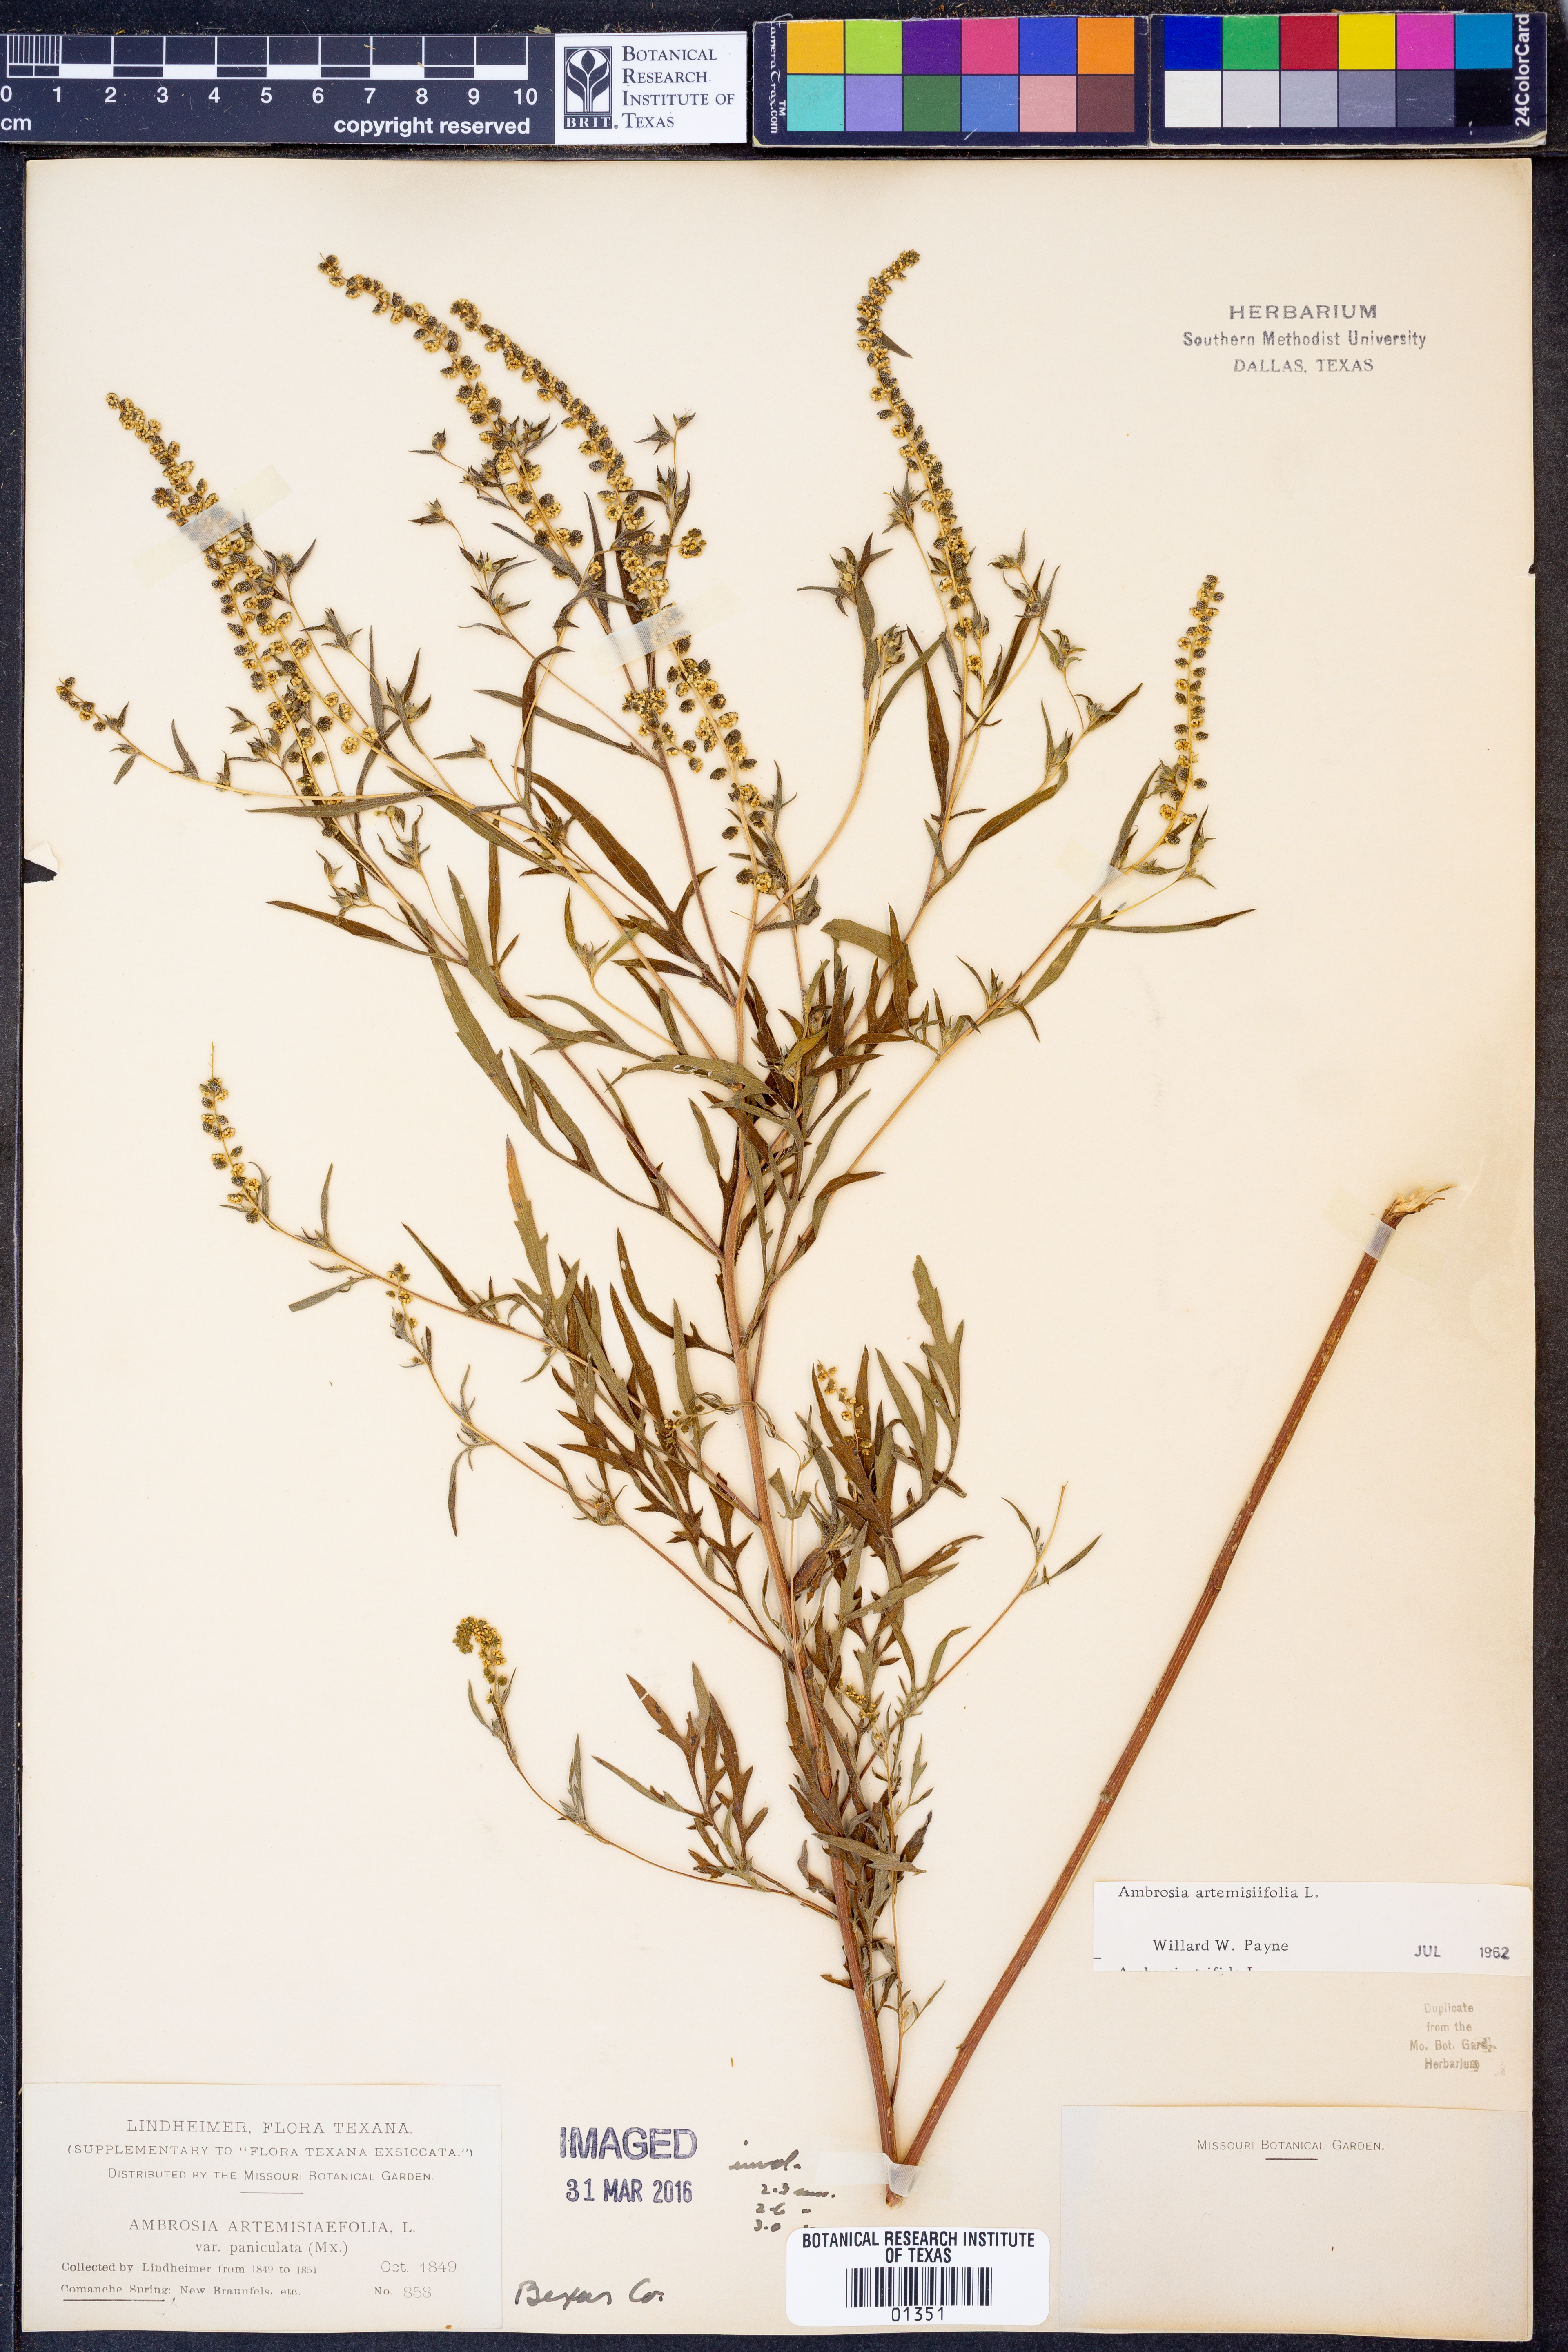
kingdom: Plantae
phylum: Tracheophyta
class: Magnoliopsida
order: Asterales
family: Asteraceae
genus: Ambrosia
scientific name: Ambrosia artemisiifolia
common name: Annual ragweed
